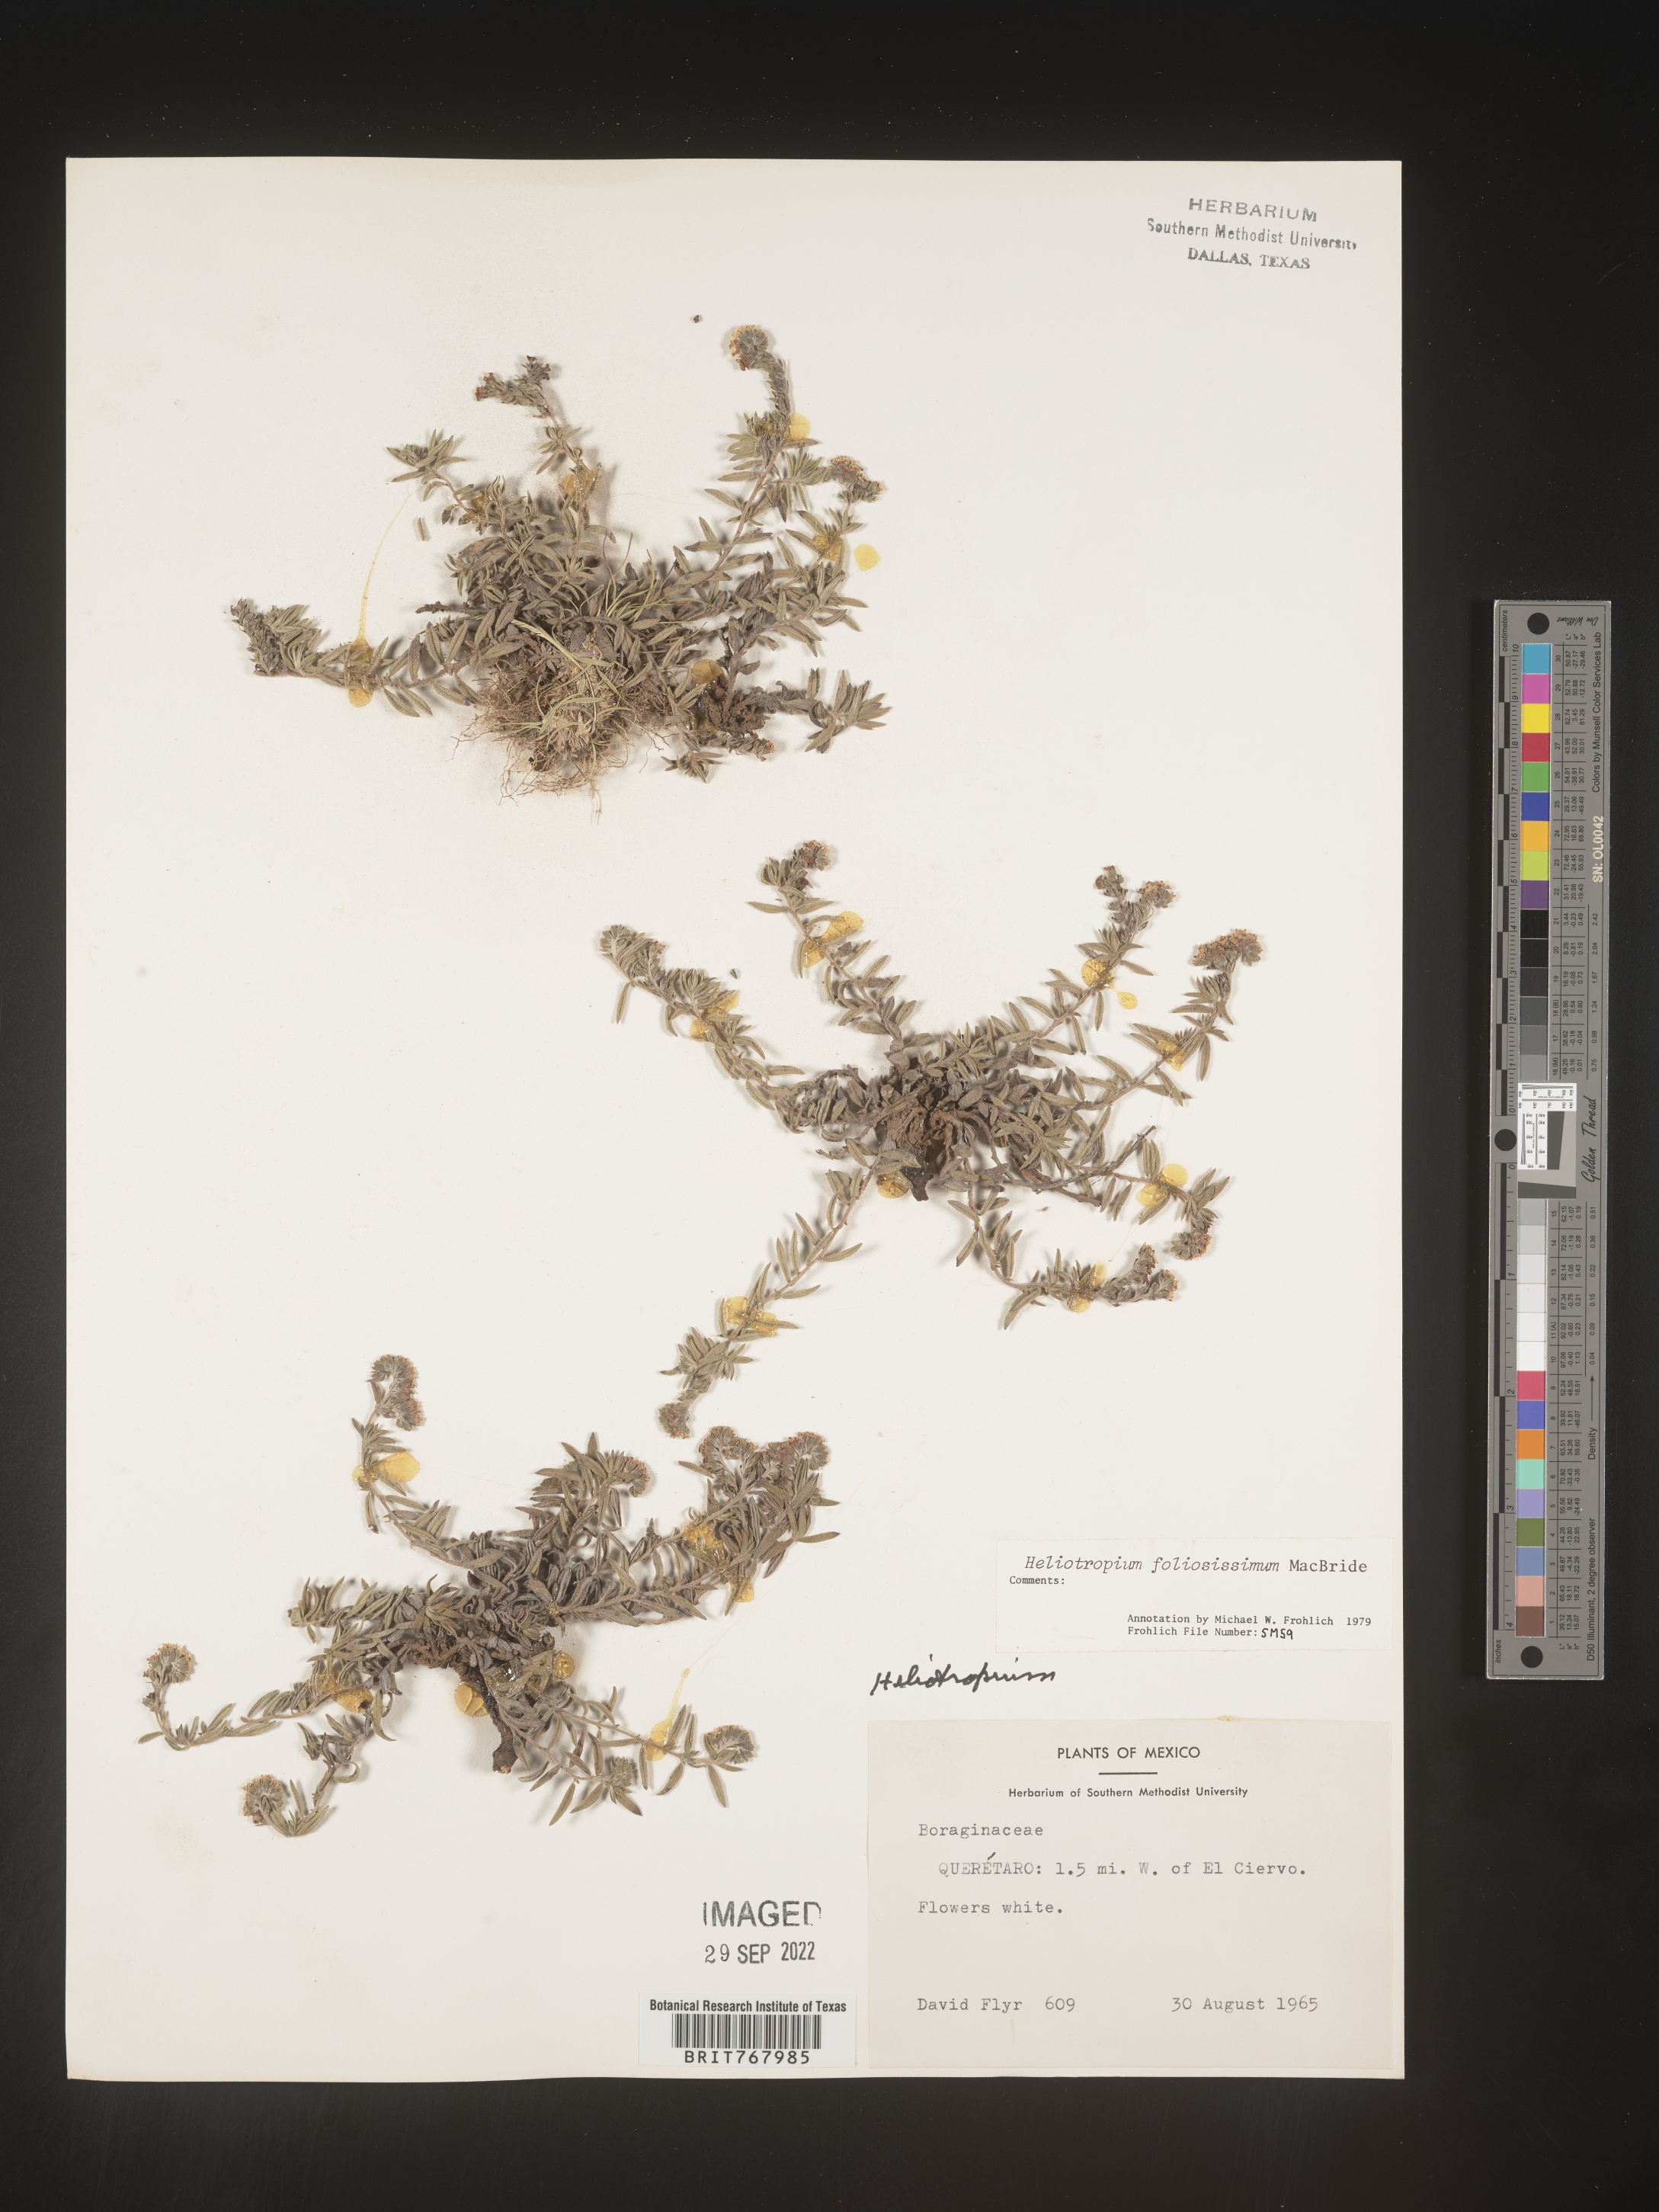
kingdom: Plantae
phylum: Tracheophyta
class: Magnoliopsida
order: Boraginales
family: Heliotropiaceae
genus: Heliotropium
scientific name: Heliotropium
